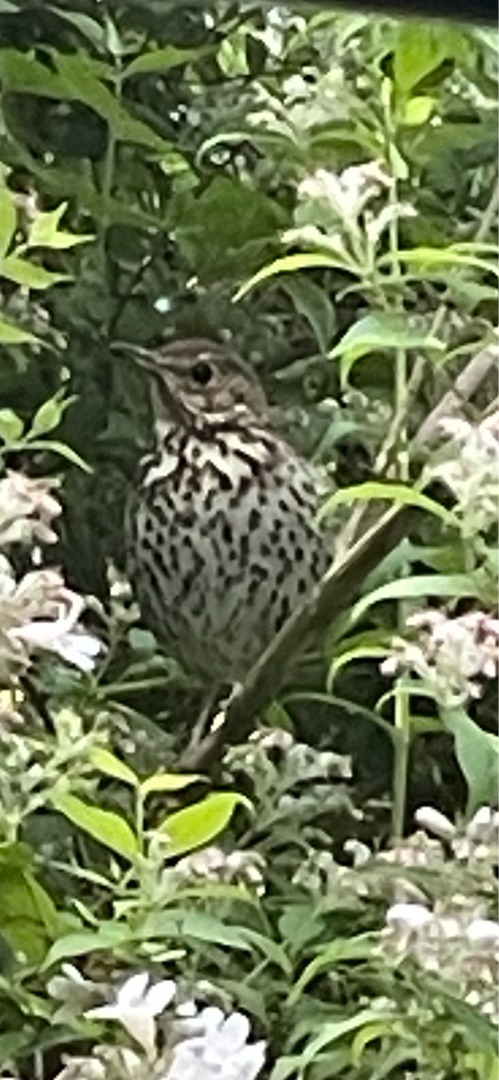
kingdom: Animalia
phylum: Chordata
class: Aves
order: Passeriformes
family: Turdidae
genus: Turdus
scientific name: Turdus philomelos
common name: Sangdrossel
